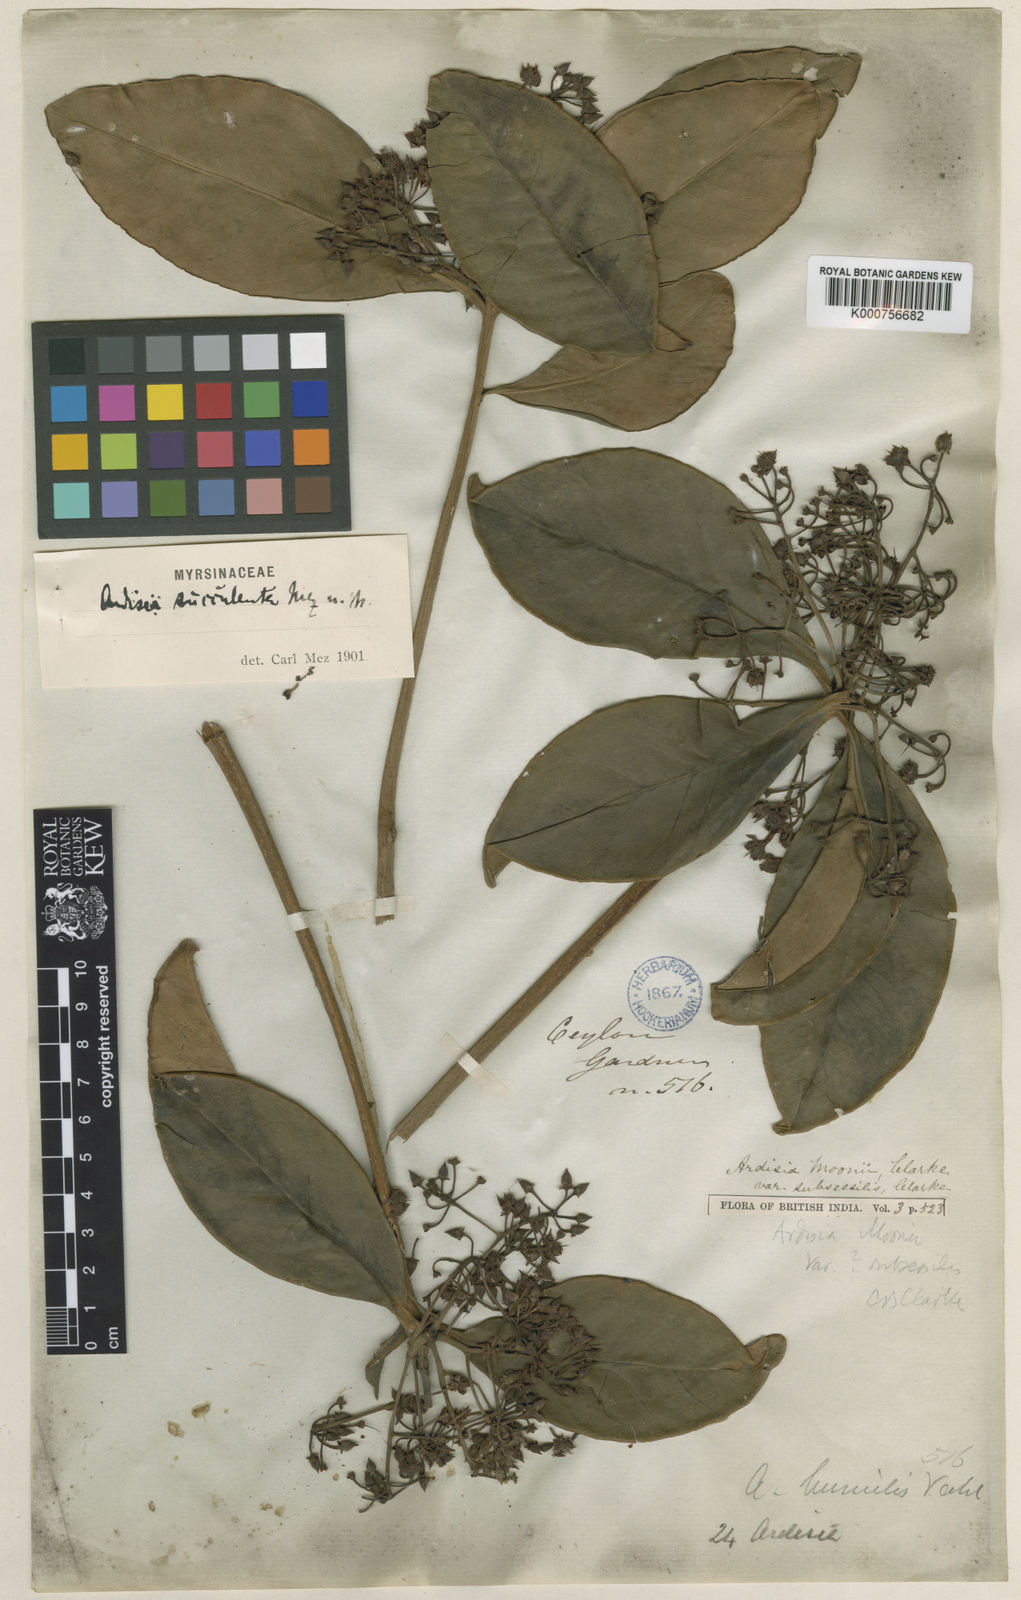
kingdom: Plantae
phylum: Tracheophyta
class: Magnoliopsida
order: Ericales
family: Primulaceae
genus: Ardisia
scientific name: Ardisia willisii
